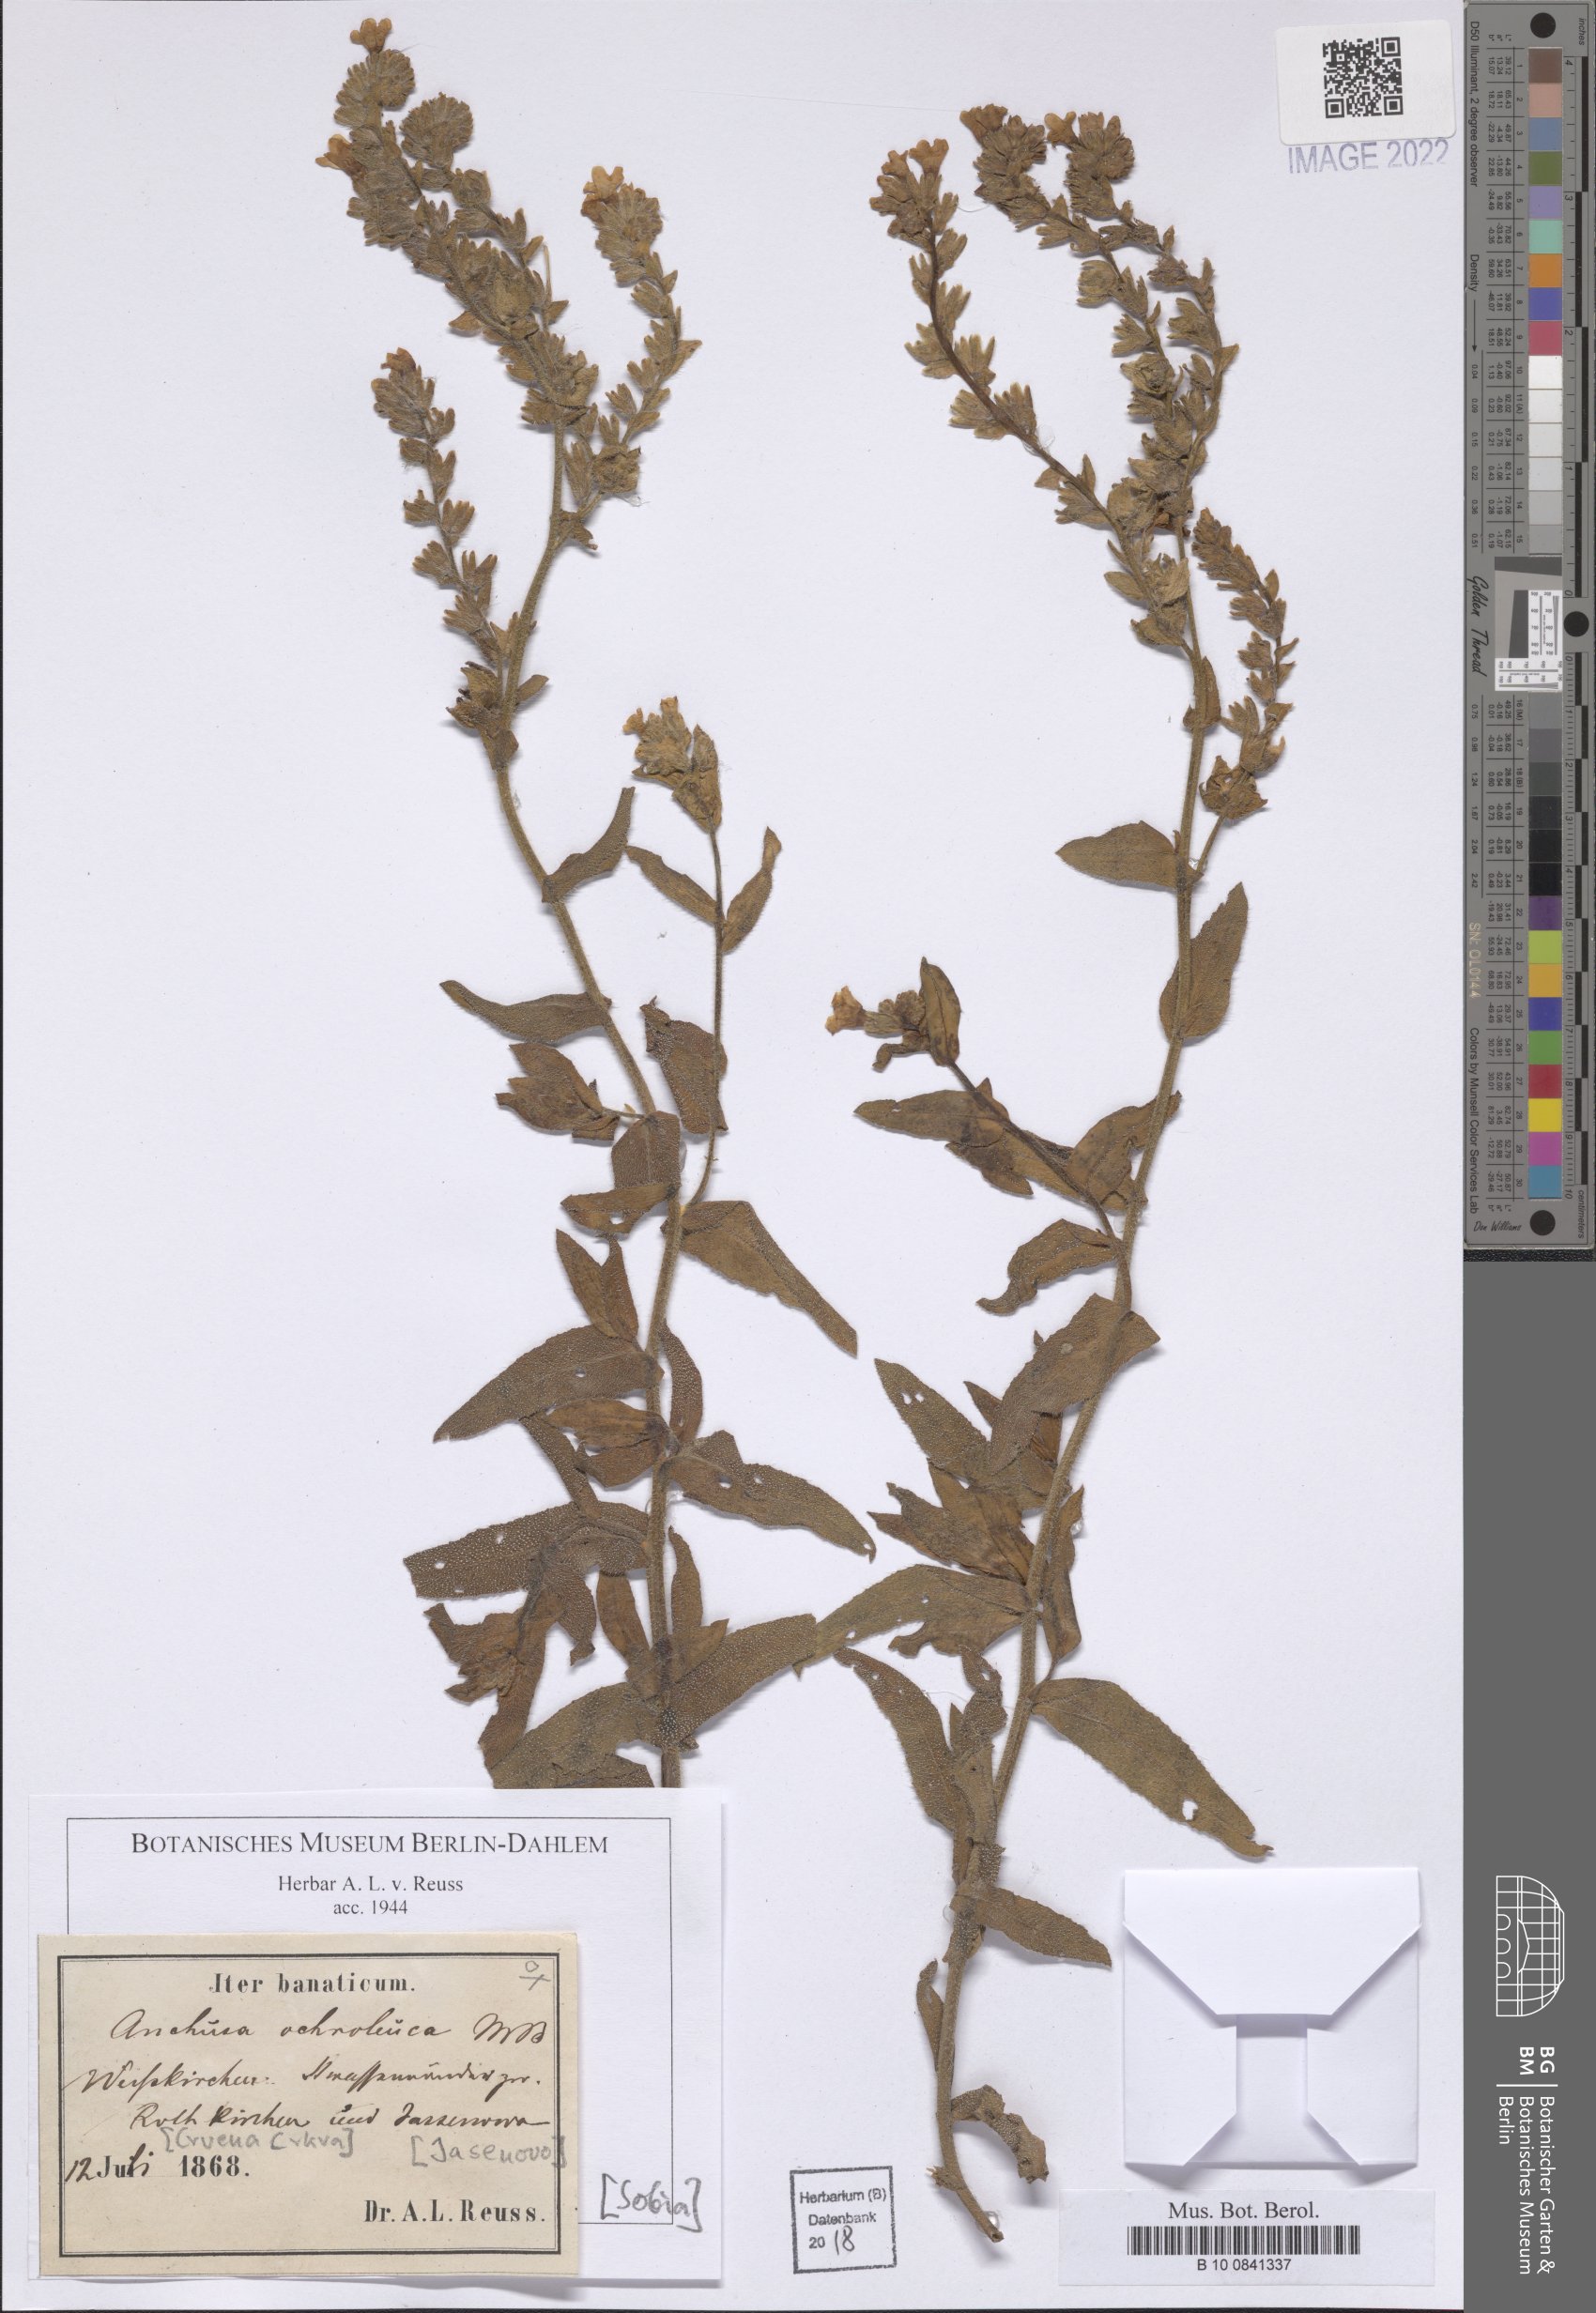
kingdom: Plantae
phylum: Tracheophyta
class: Magnoliopsida
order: Boraginales
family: Boraginaceae
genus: Anchusa
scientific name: Anchusa ochroleuca
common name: Yellow alkanet
